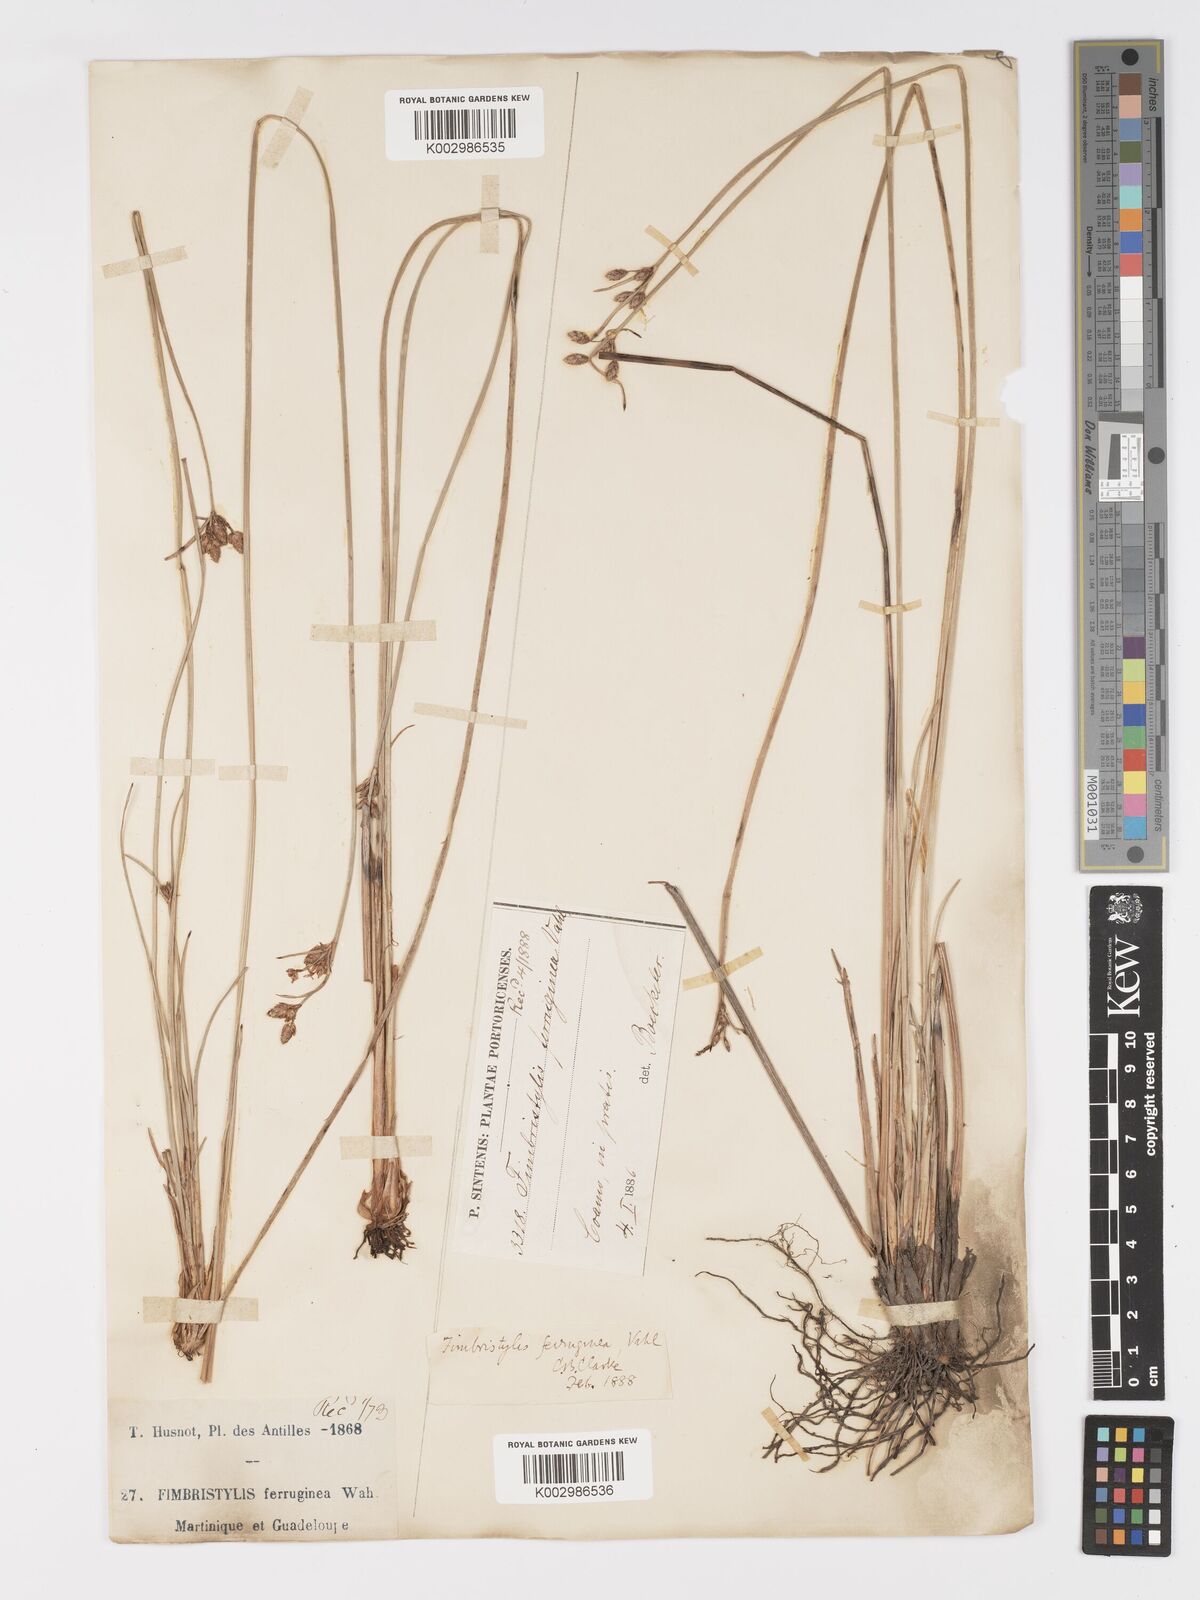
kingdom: Plantae
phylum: Tracheophyta
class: Liliopsida
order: Poales
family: Cyperaceae
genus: Fimbristylis
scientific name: Fimbristylis ferruginea
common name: West indian fimbry
